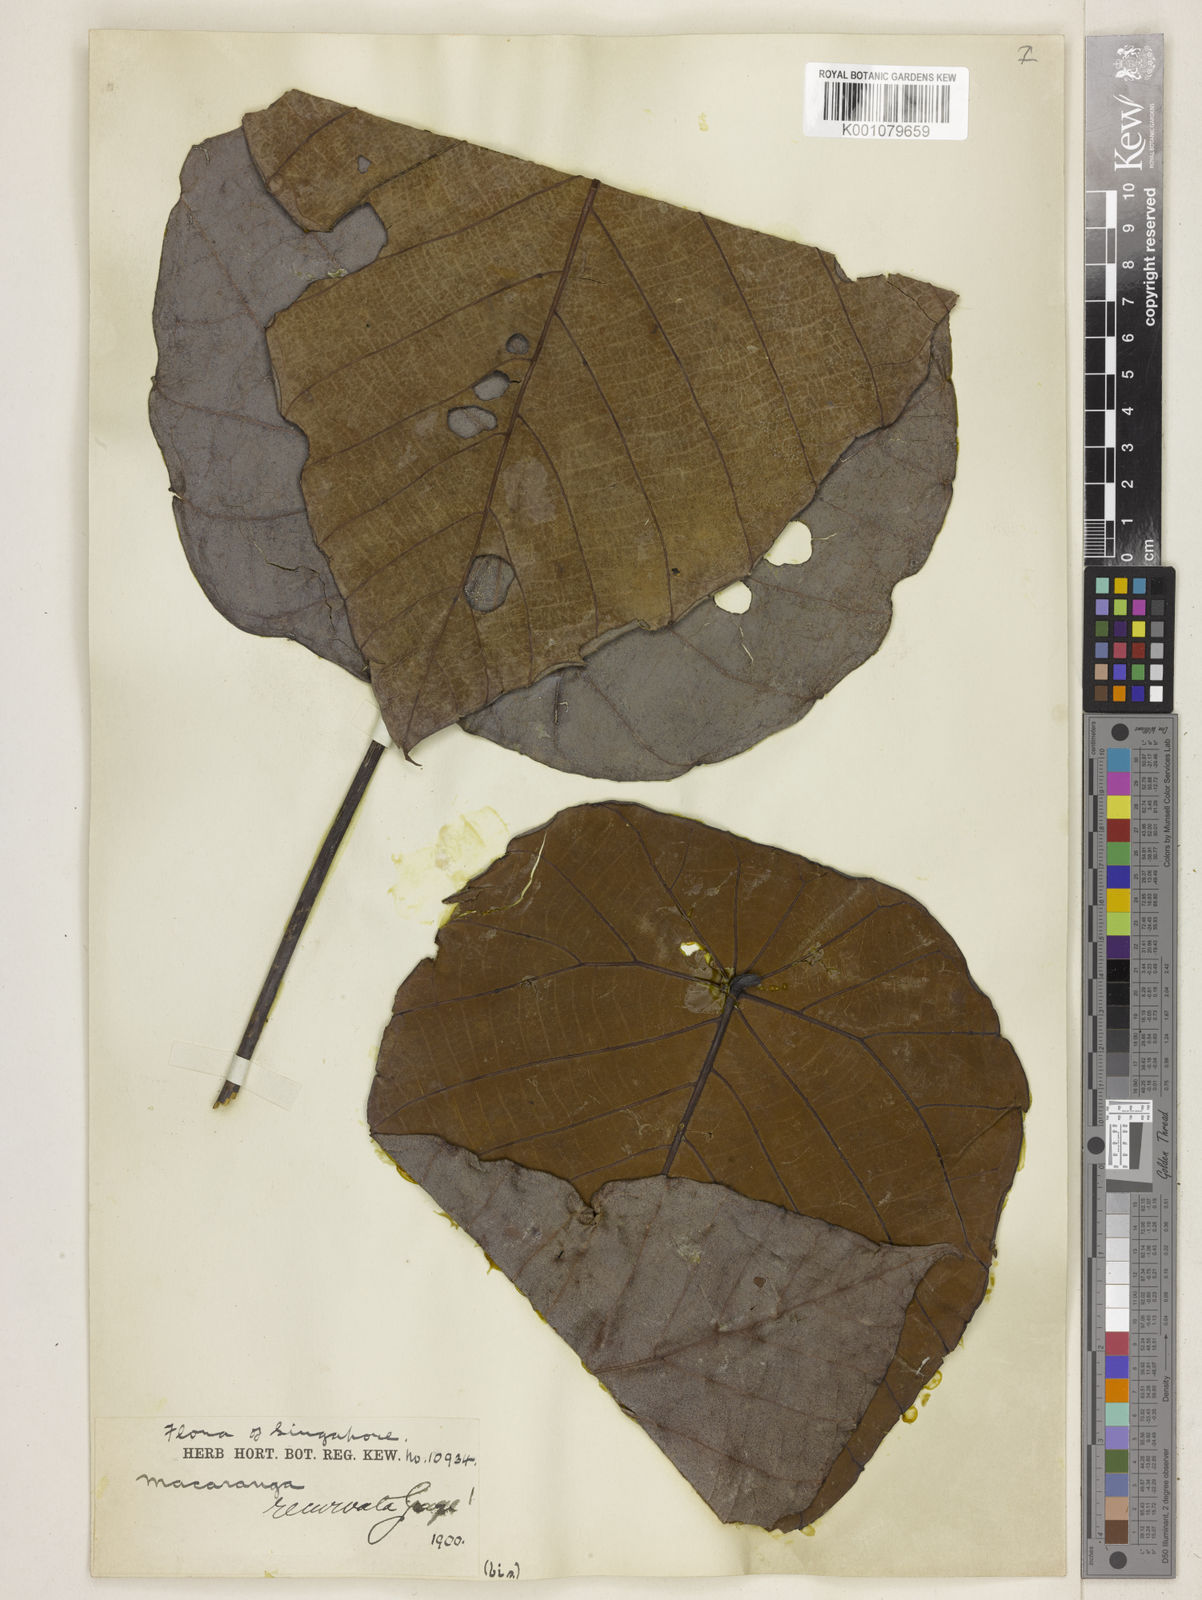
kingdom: Plantae
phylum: Tracheophyta
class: Magnoliopsida
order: Malpighiales
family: Euphorbiaceae
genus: Macaranga
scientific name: Macaranga recurvata
